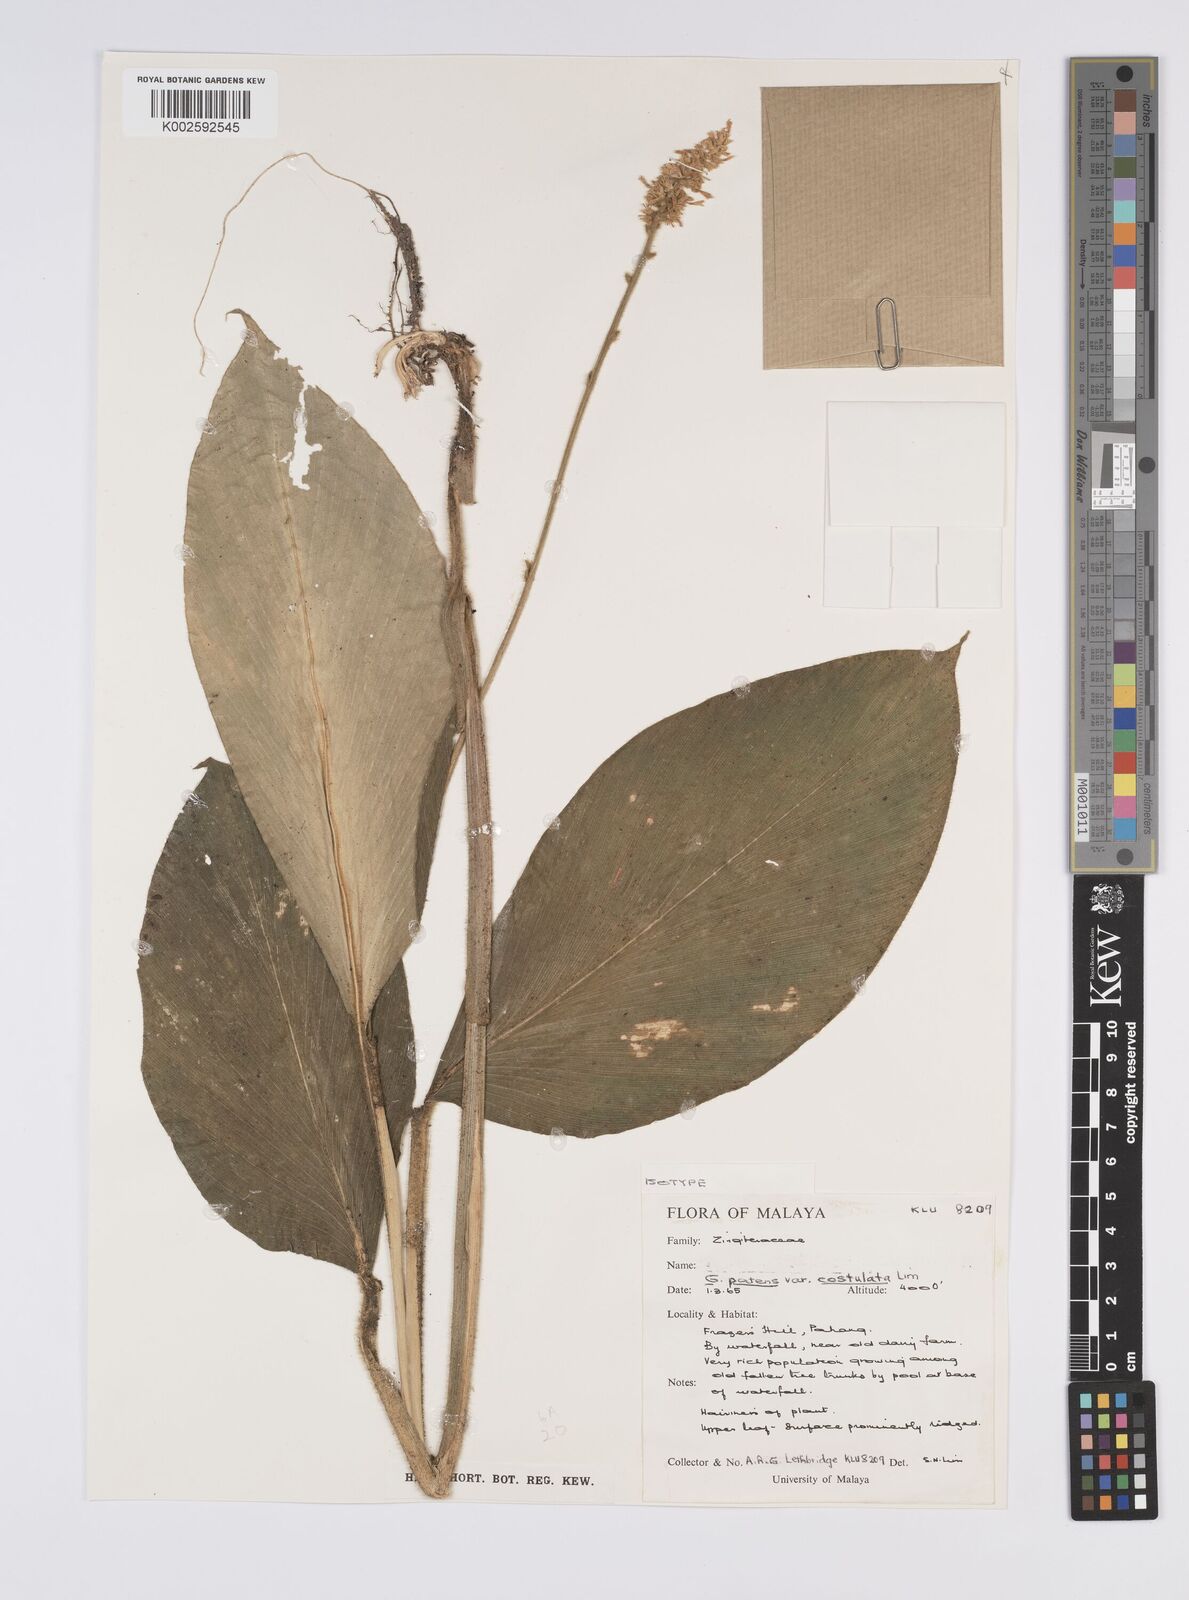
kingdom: Plantae
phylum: Tracheophyta
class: Liliopsida
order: Zingiberales
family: Zingiberaceae
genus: Globba
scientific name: Globba patens
